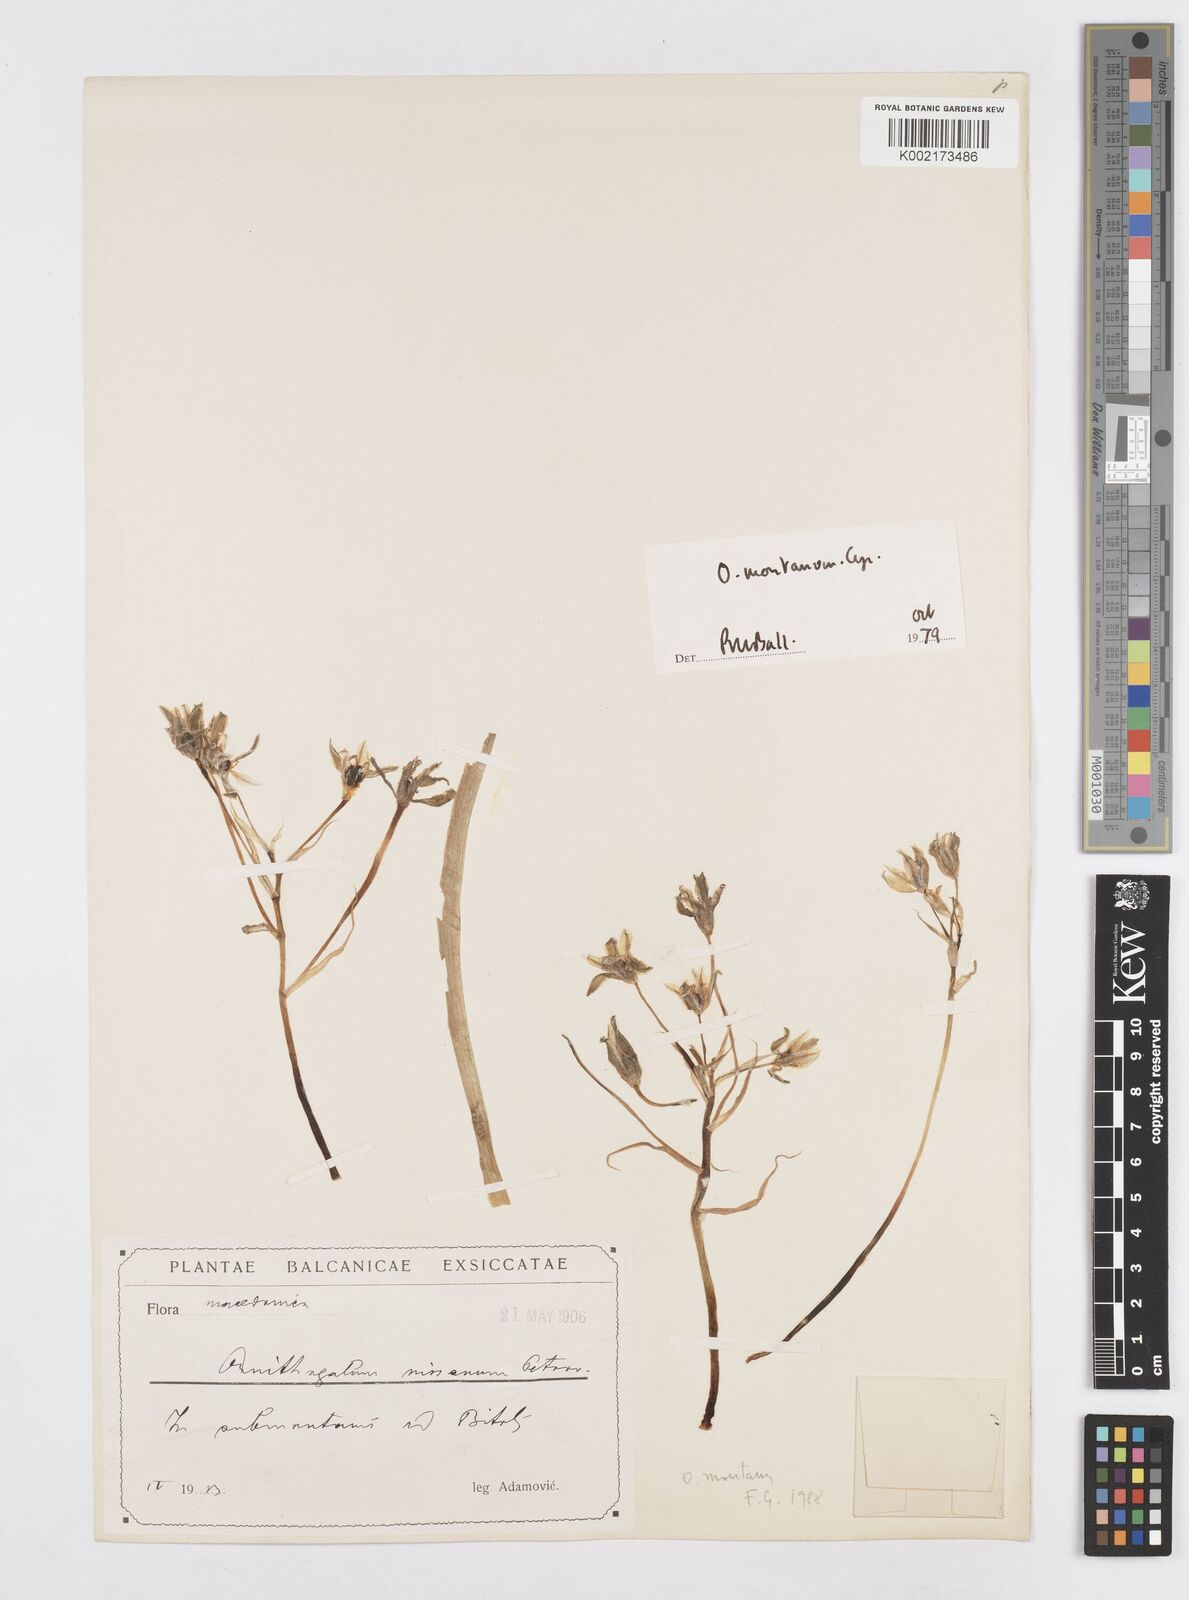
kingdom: Plantae
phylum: Tracheophyta
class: Liliopsida
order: Asparagales
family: Asparagaceae
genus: Ornithogalum
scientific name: Ornithogalum montanum
